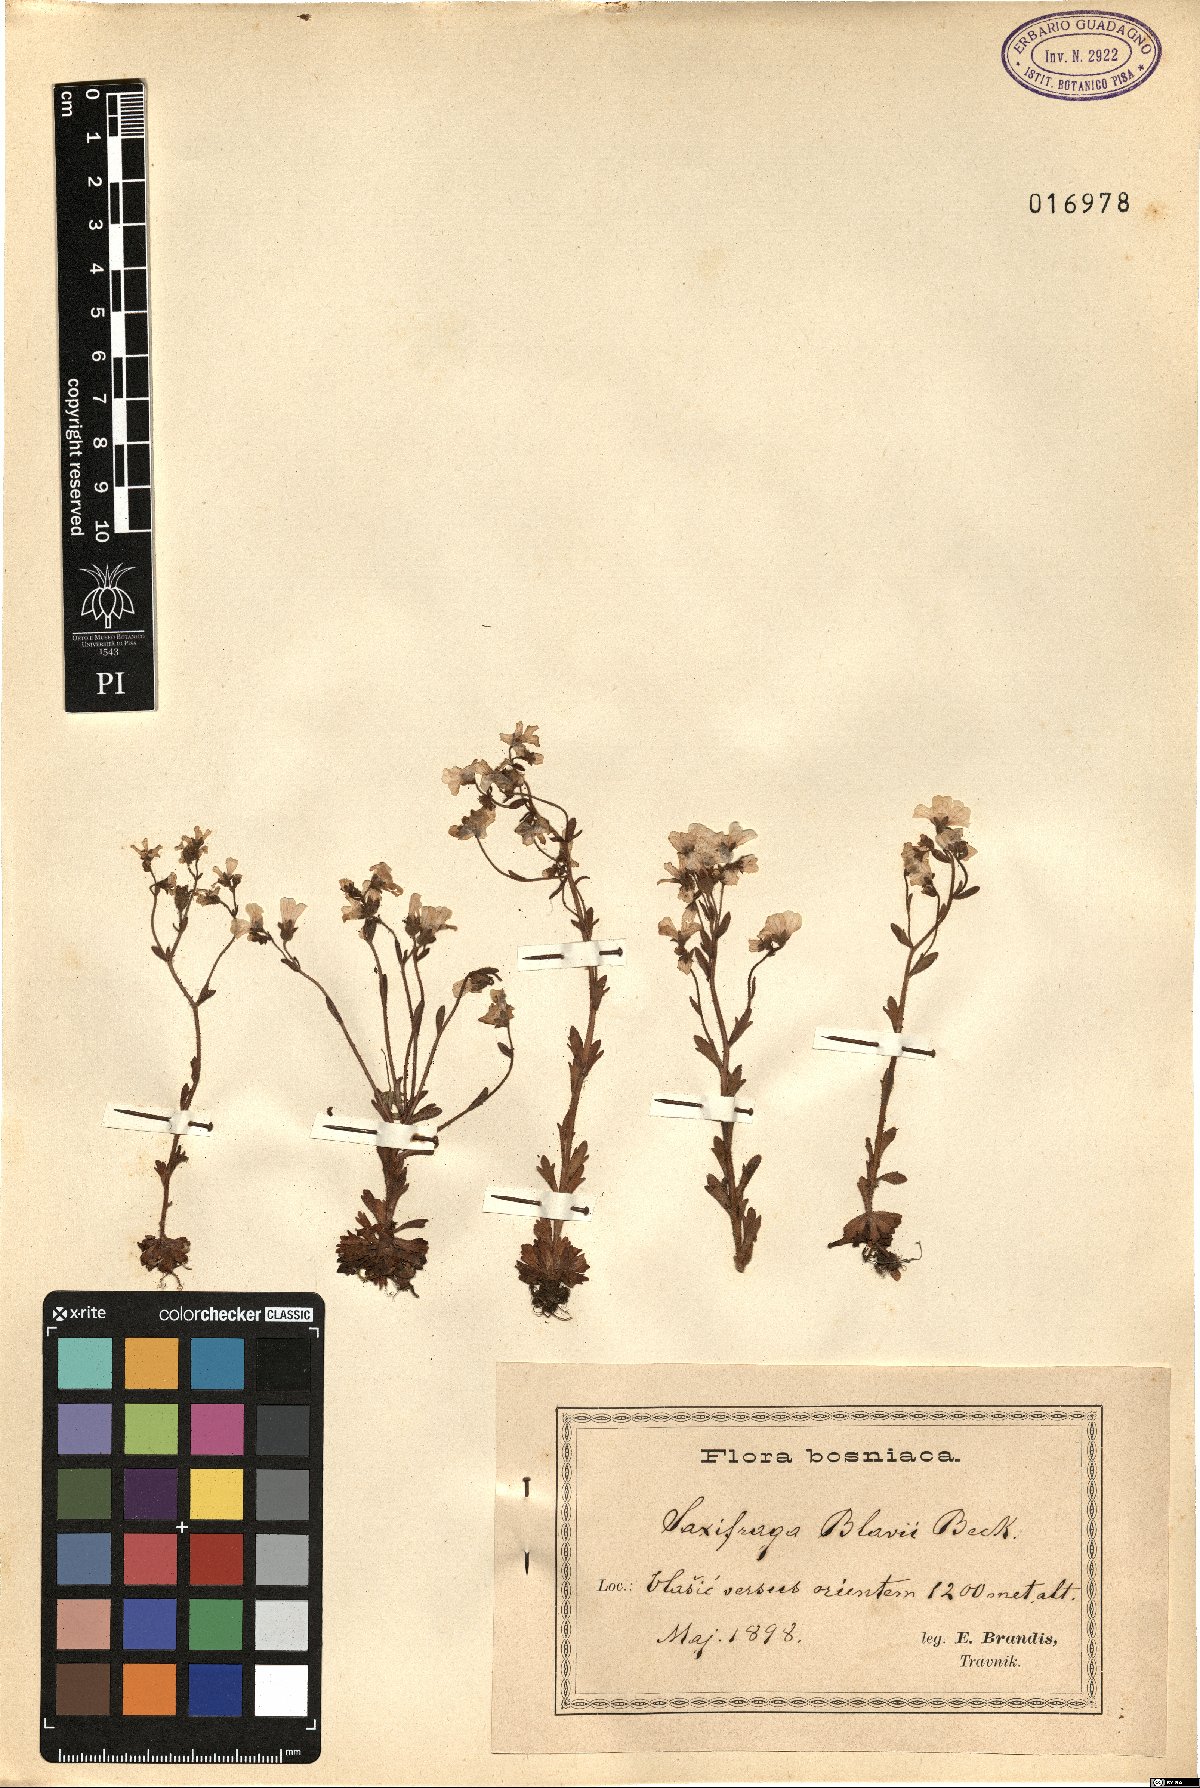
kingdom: Plantae
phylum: Tracheophyta
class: Magnoliopsida
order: Saxifragales
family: Saxifragaceae
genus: Saxifraga
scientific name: Saxifraga adscendens
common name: Ascending saxifrage
